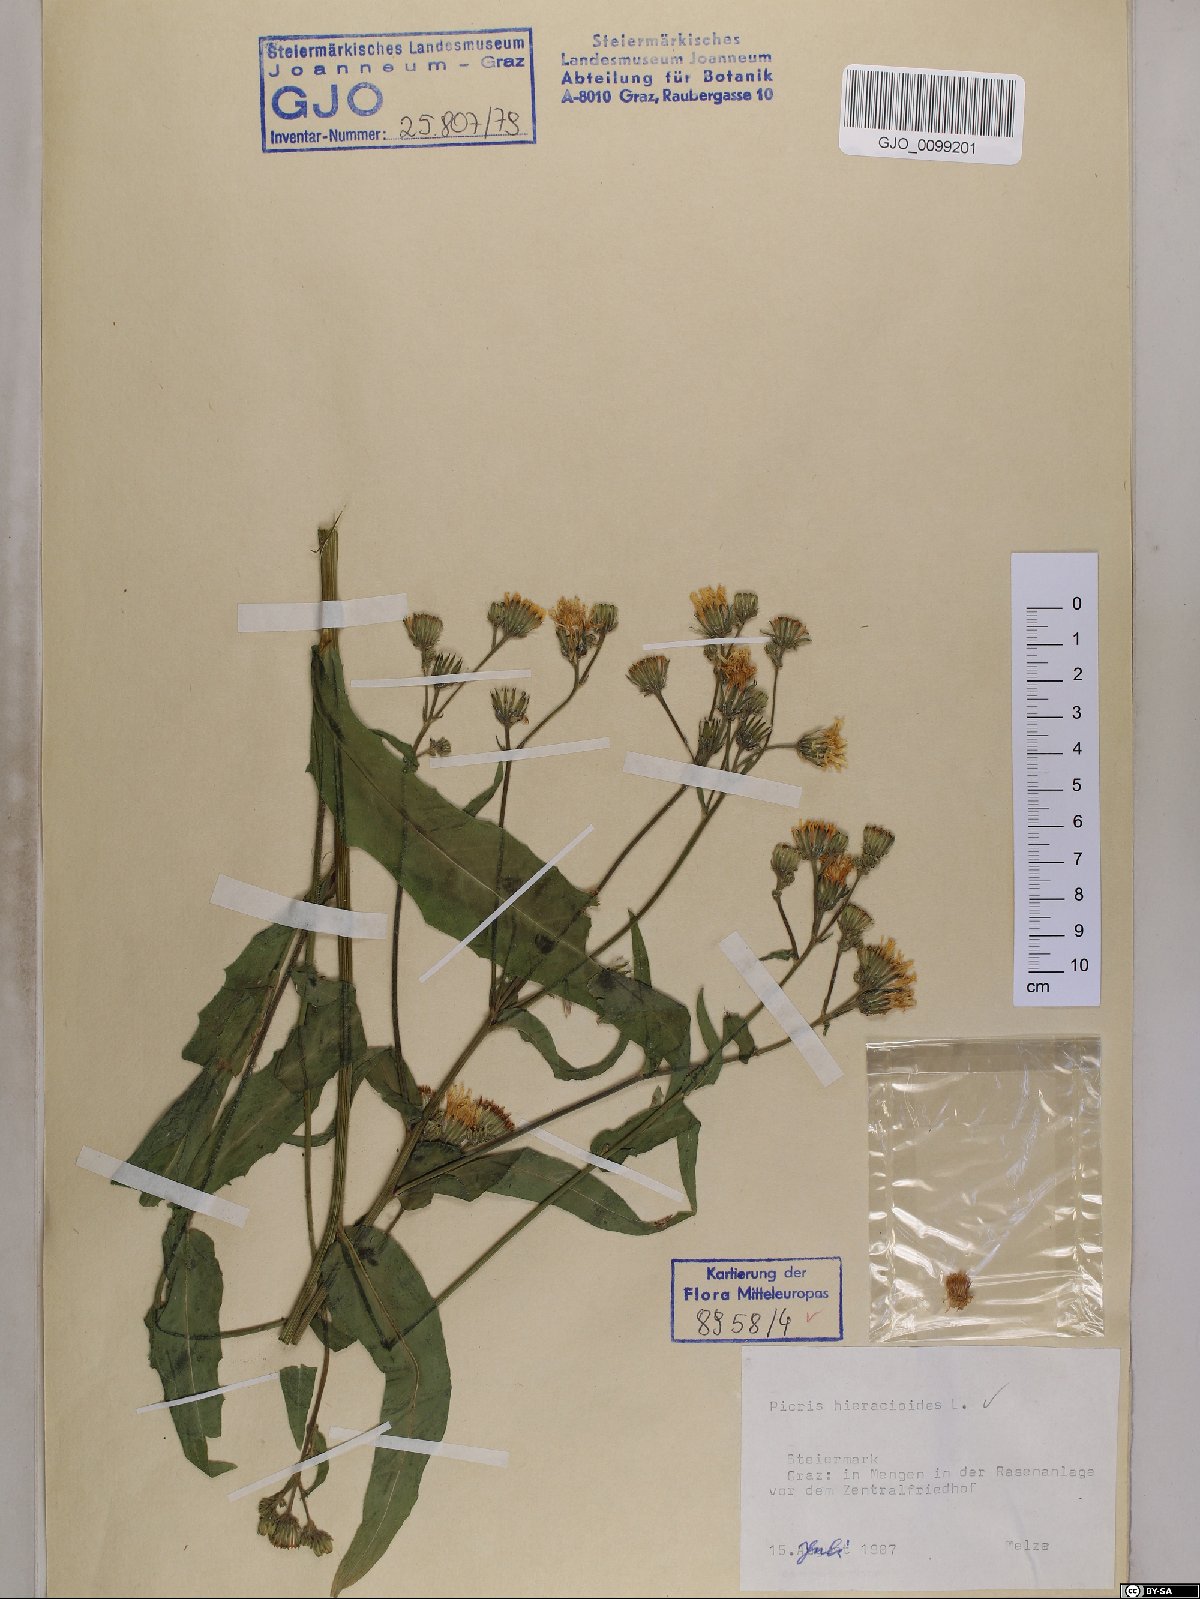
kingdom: Plantae
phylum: Tracheophyta
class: Magnoliopsida
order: Asterales
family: Asteraceae
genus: Picris
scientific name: Picris hieracioides
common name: Hawkweed oxtongue
